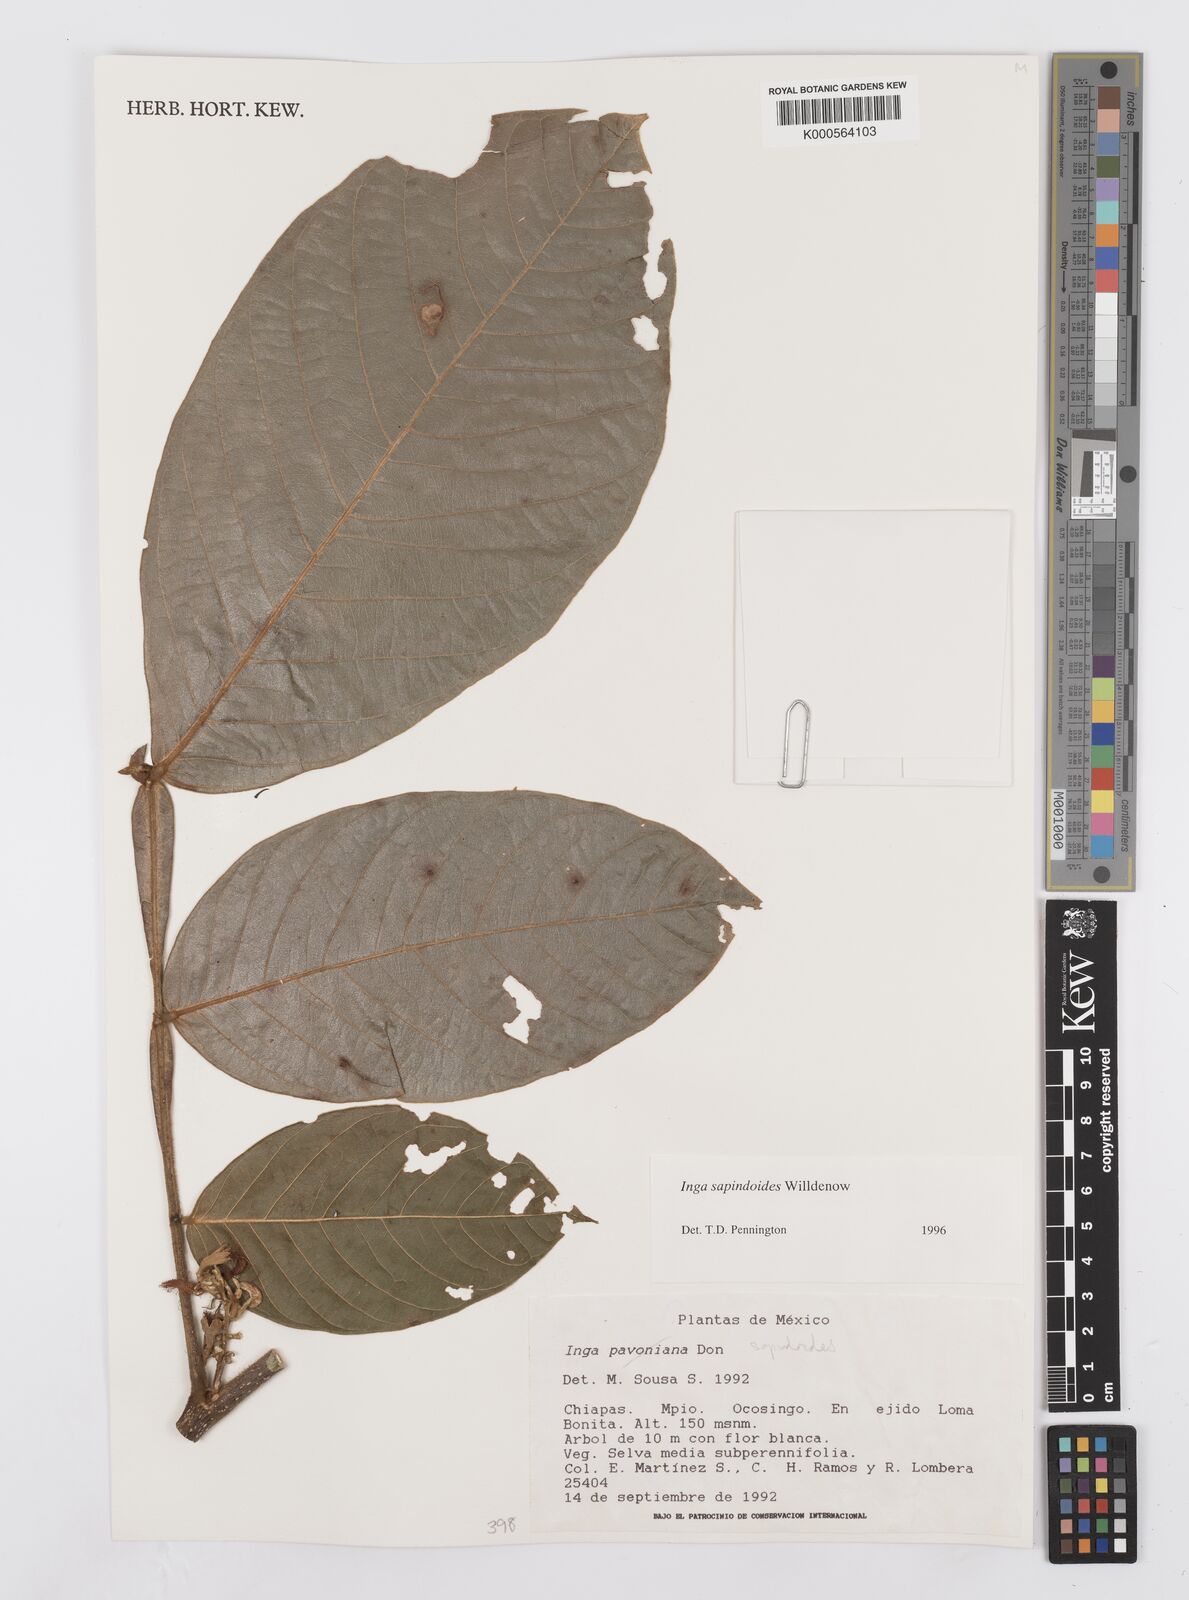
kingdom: Plantae
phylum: Tracheophyta
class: Magnoliopsida
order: Fabales
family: Fabaceae
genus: Inga
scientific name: Inga sapindoides
